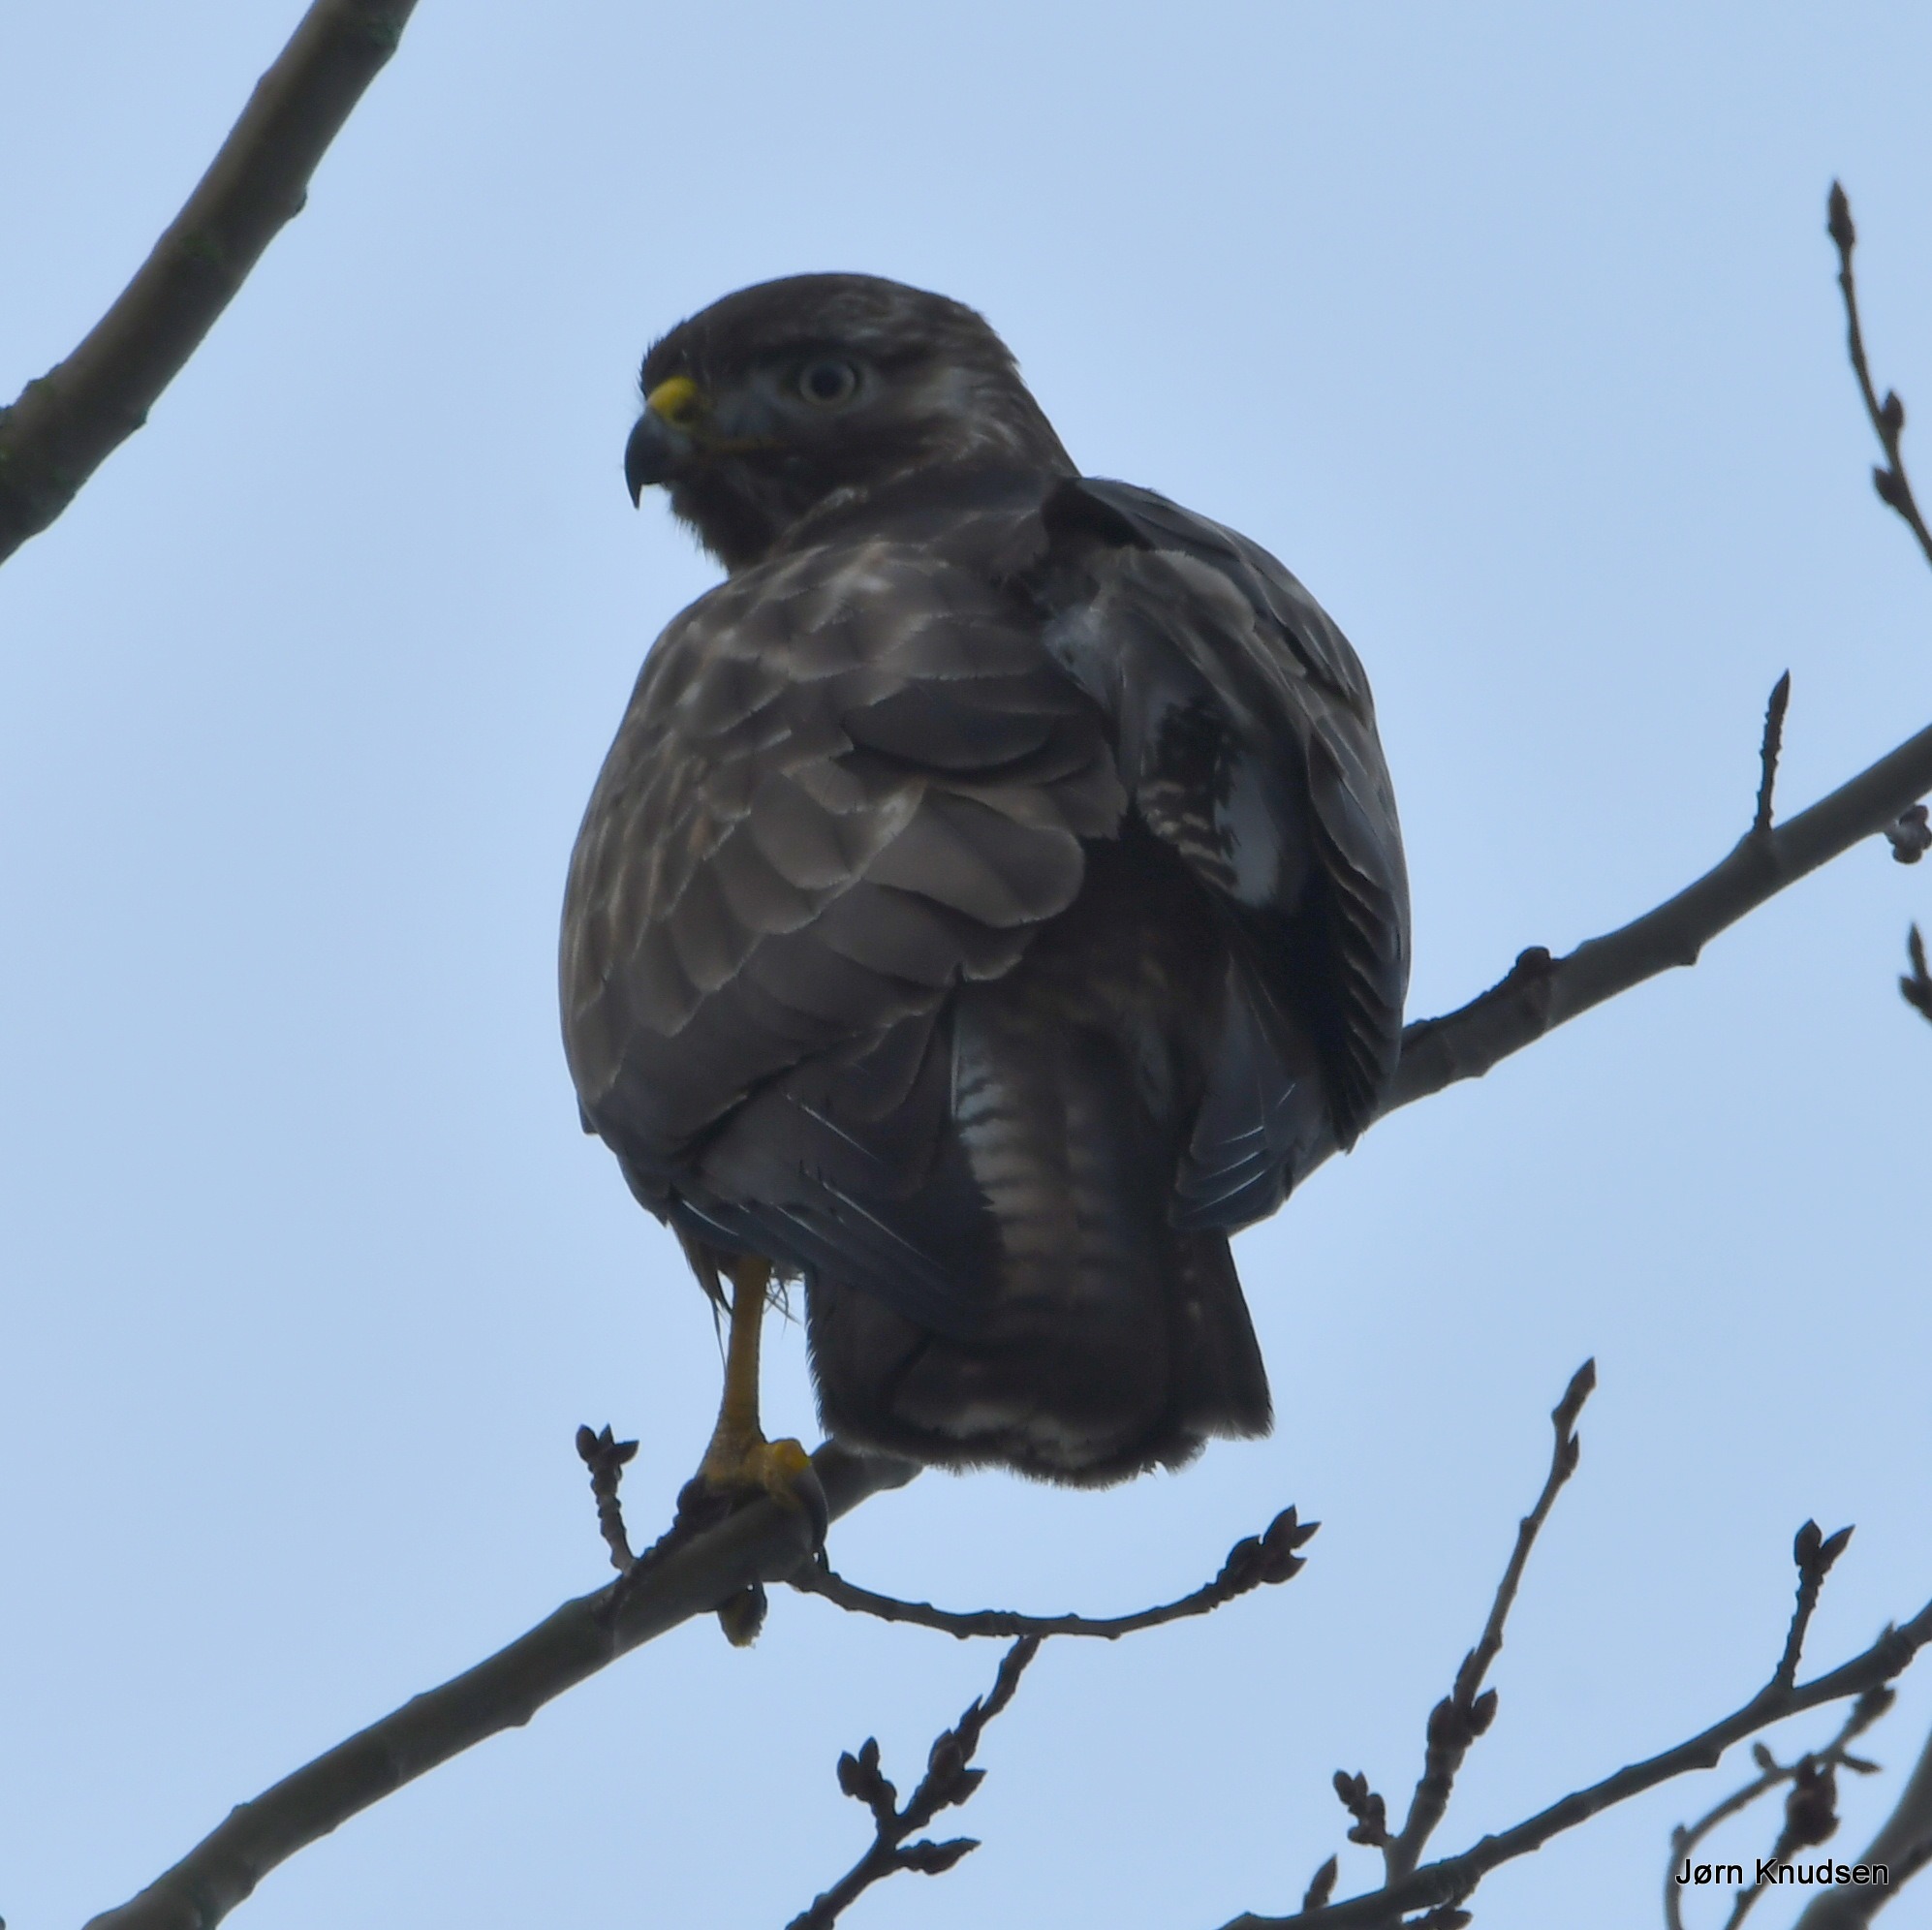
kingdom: Animalia
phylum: Chordata
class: Aves
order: Accipitriformes
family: Accipitridae
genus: Buteo
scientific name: Buteo buteo
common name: Musvåge
